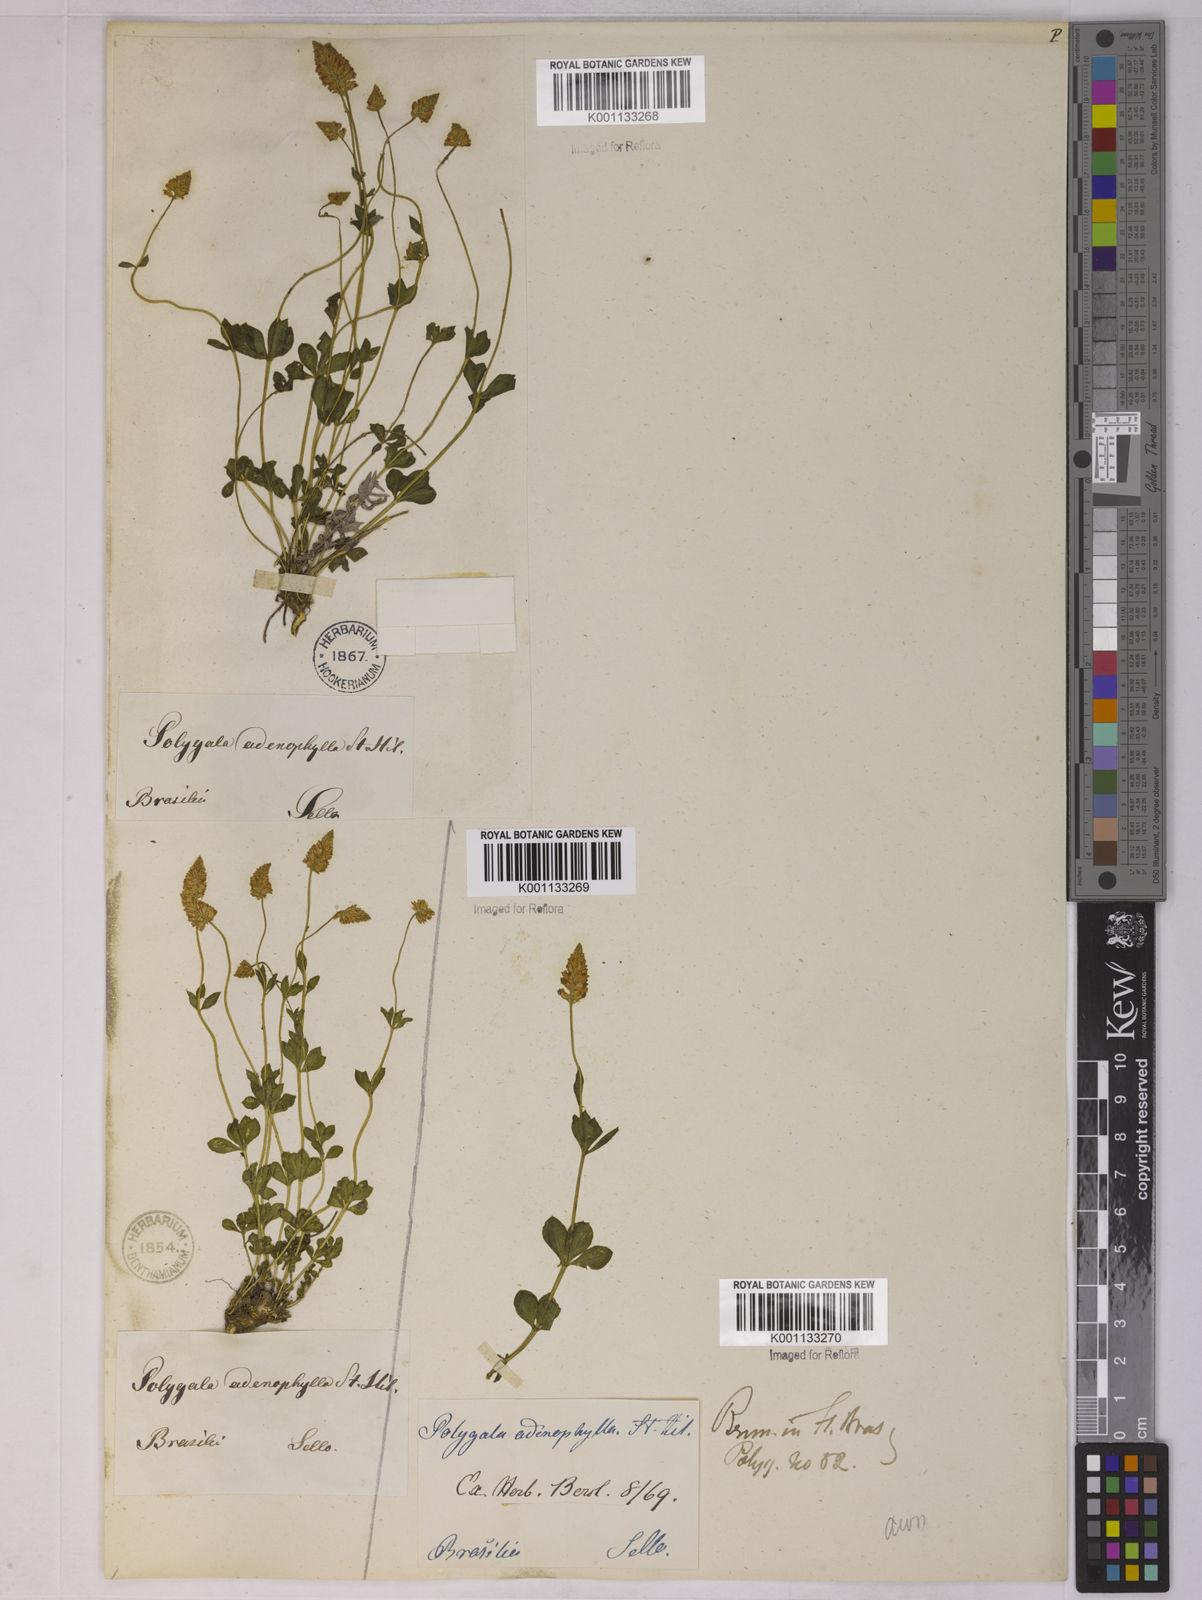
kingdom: Plantae
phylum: Tracheophyta
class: Magnoliopsida
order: Fabales
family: Polygalaceae
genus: Polygala
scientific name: Polygala adenophylla
